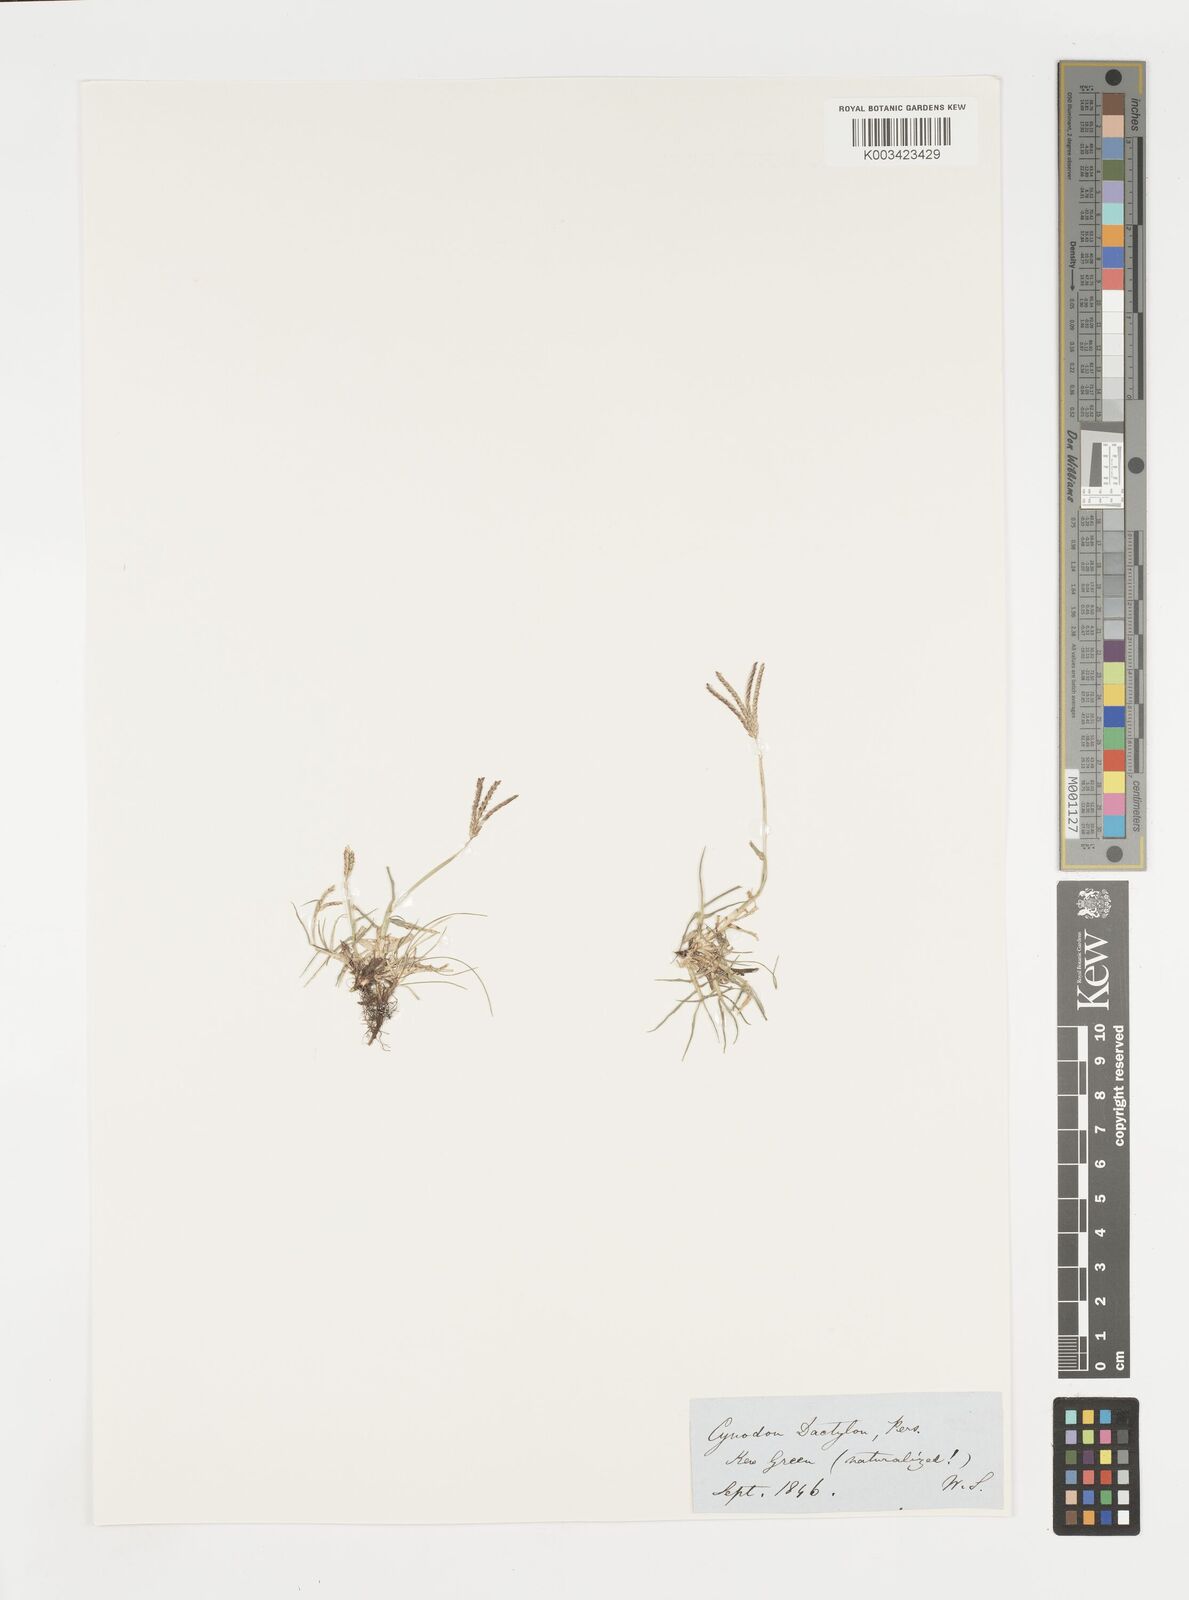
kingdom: Plantae
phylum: Tracheophyta
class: Liliopsida
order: Poales
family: Poaceae
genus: Cynodon
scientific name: Cynodon dactylon
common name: Bermuda grass
